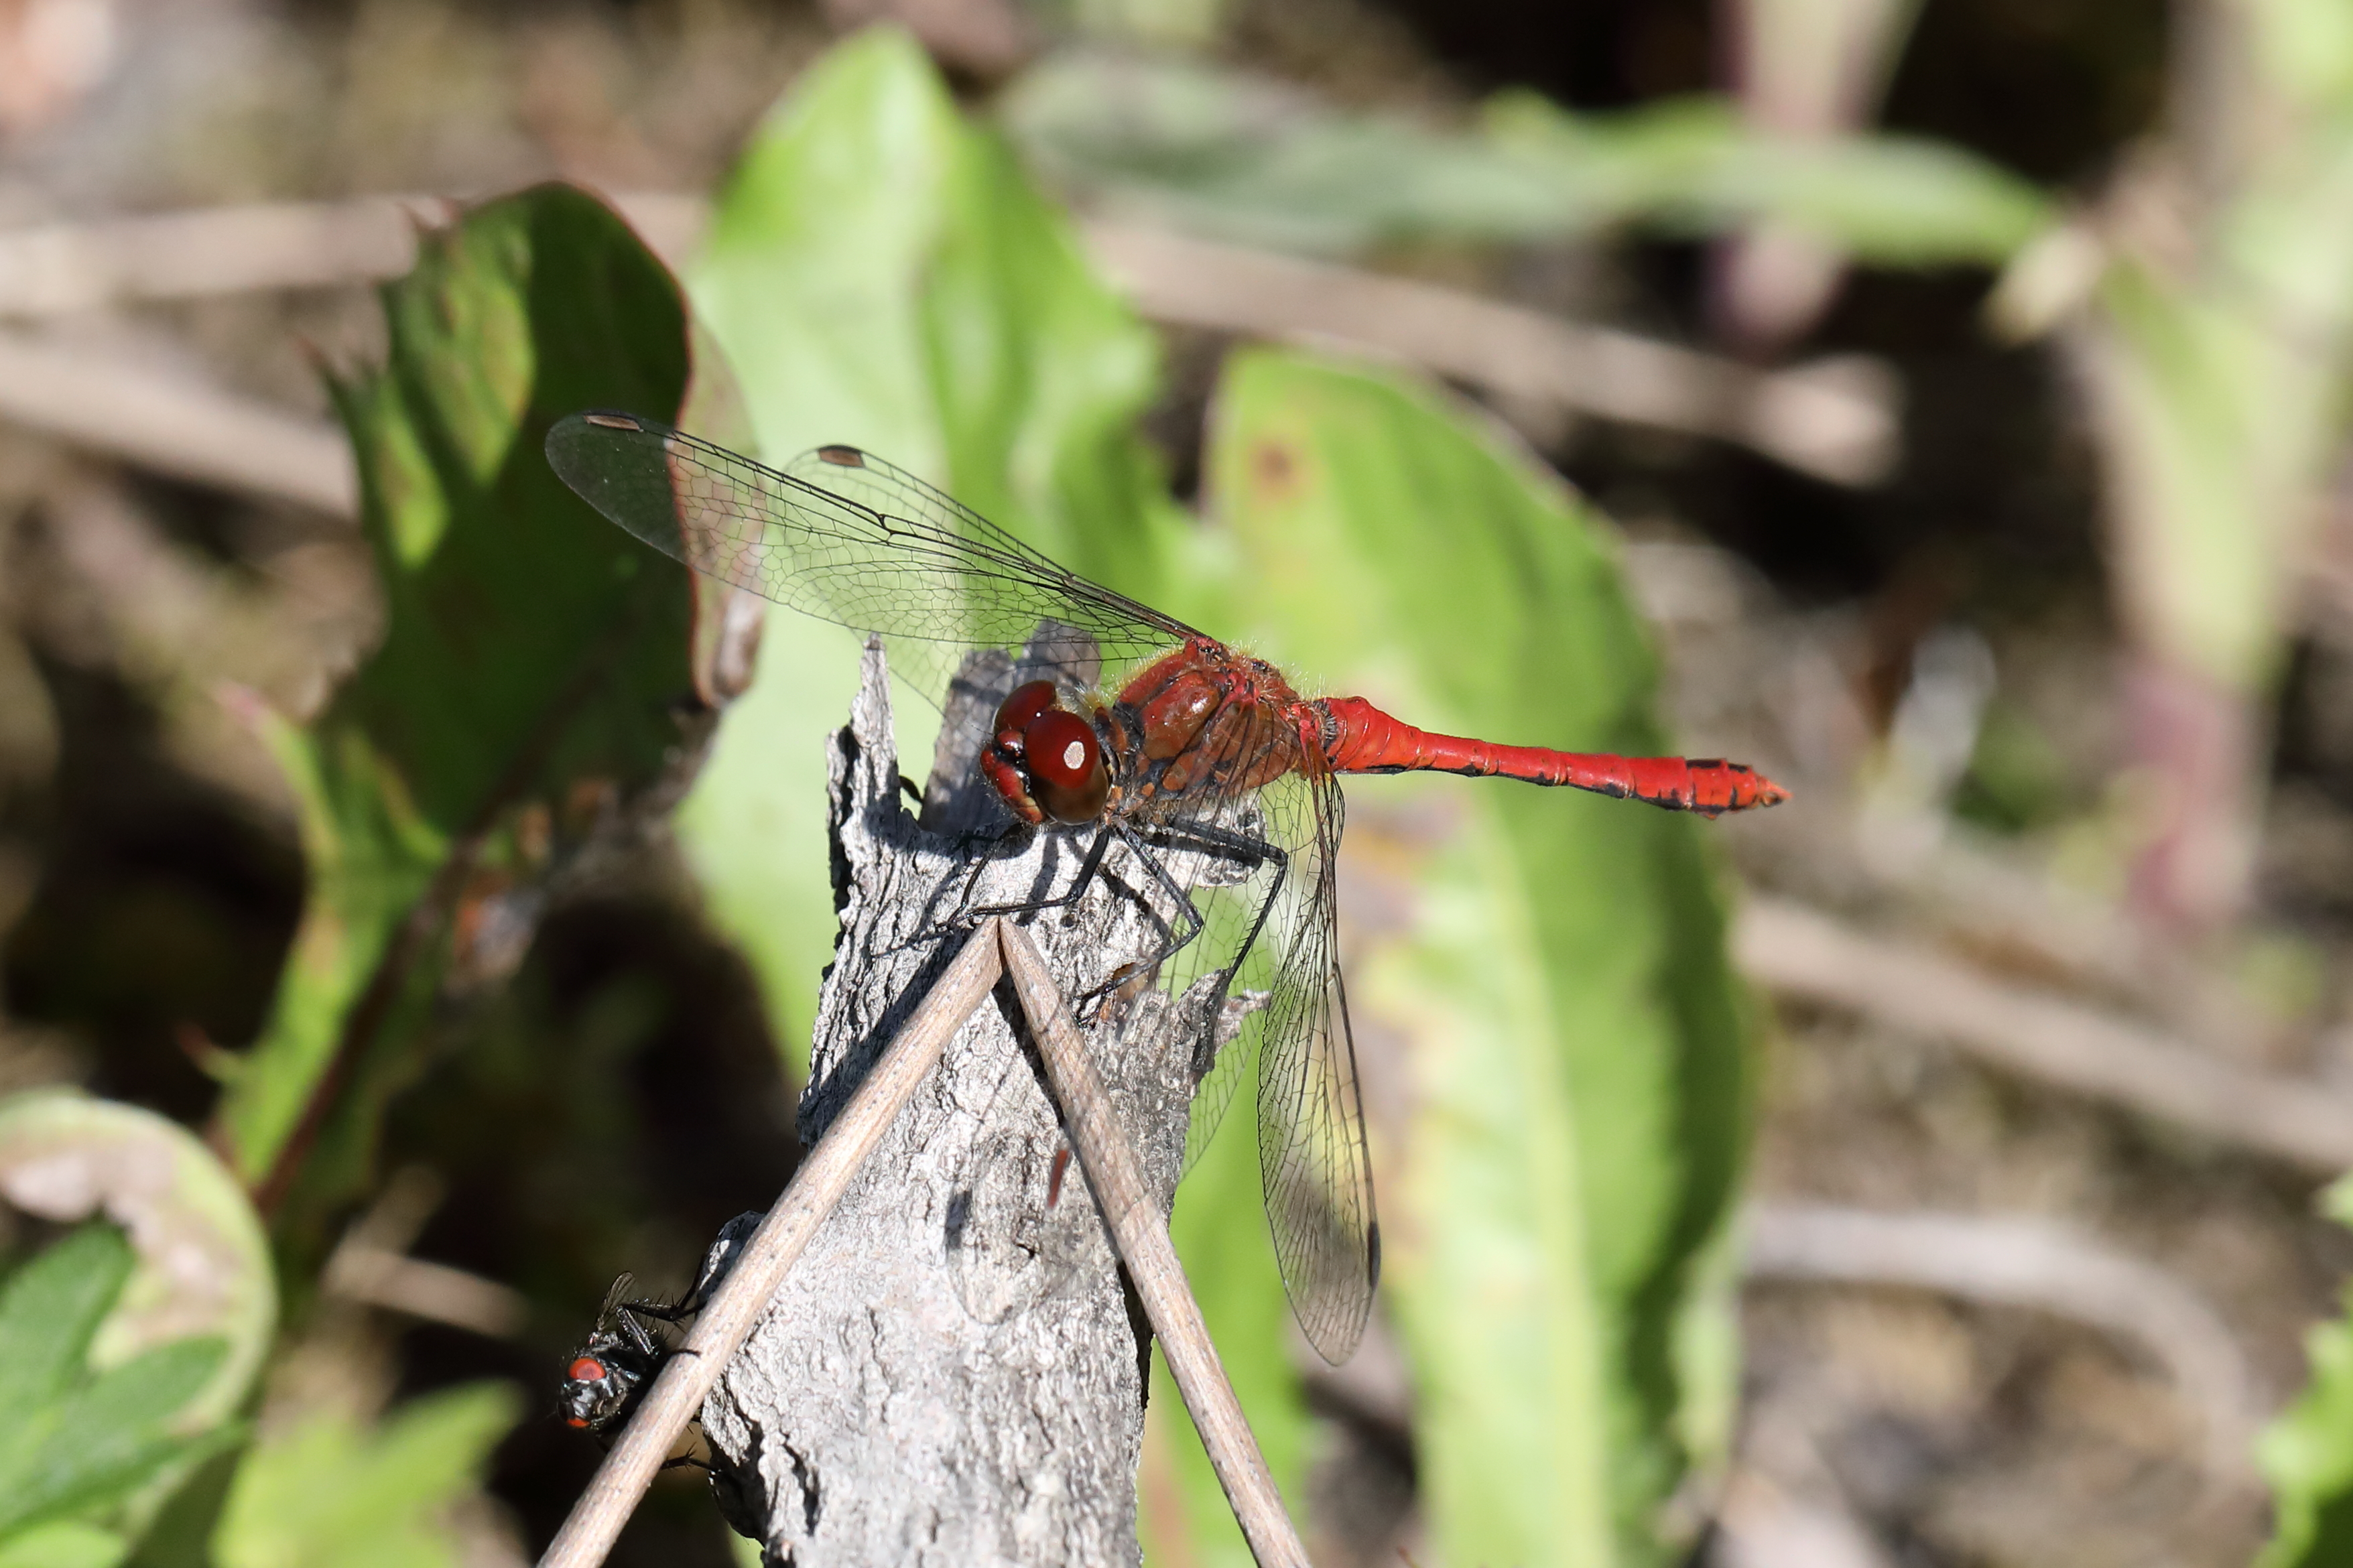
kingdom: Animalia
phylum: Arthropoda
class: Insecta
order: Odonata
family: Libellulidae
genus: Sympetrum
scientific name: Sympetrum sanguineum
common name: Ruddy darter
